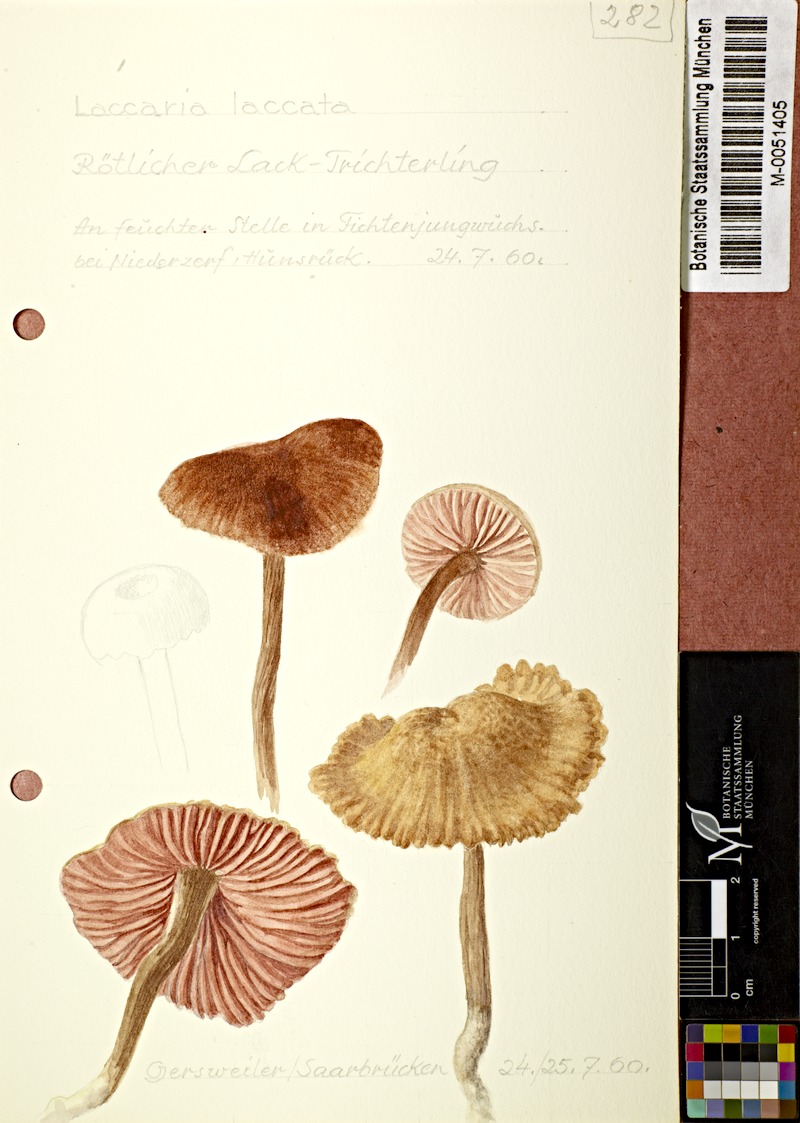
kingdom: Fungi
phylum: Basidiomycota
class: Agaricomycetes
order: Agaricales
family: Hydnangiaceae
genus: Laccaria
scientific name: Laccaria laccata
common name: Deceiver
